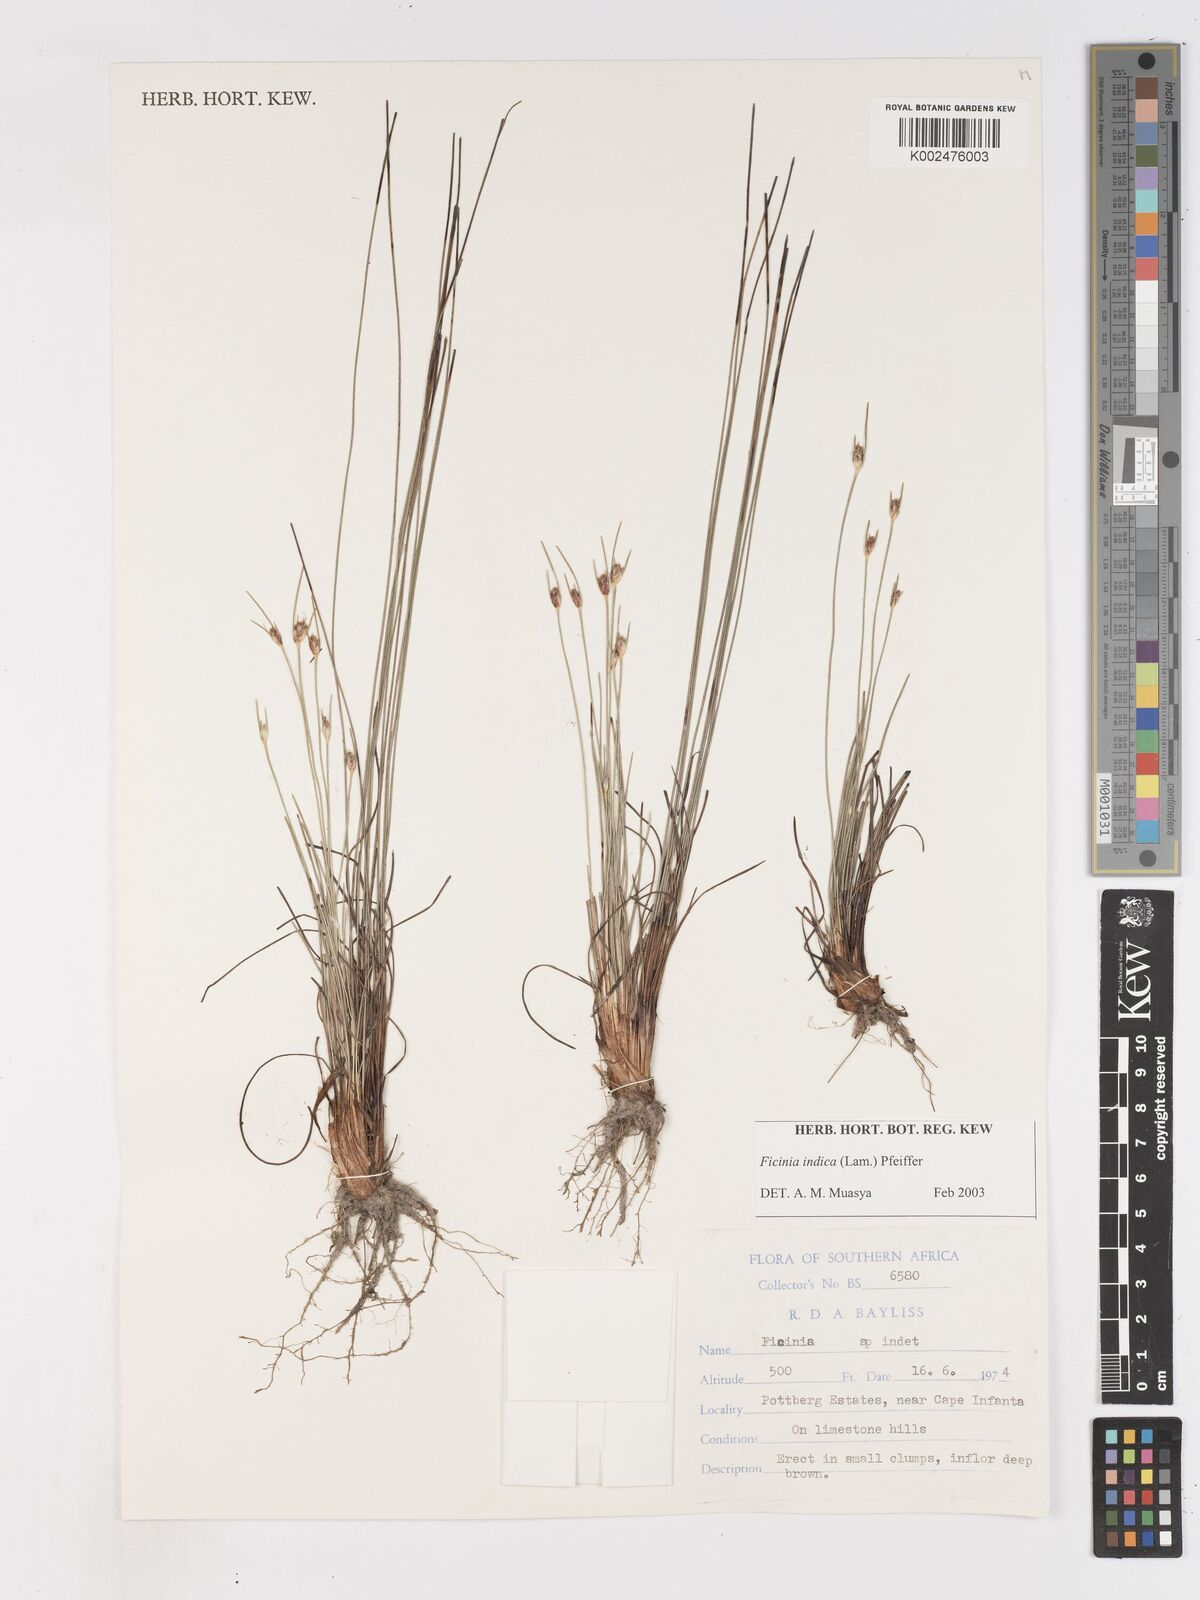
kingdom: Plantae
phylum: Tracheophyta
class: Liliopsida
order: Poales
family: Cyperaceae
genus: Ficinia
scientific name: Ficinia indica
